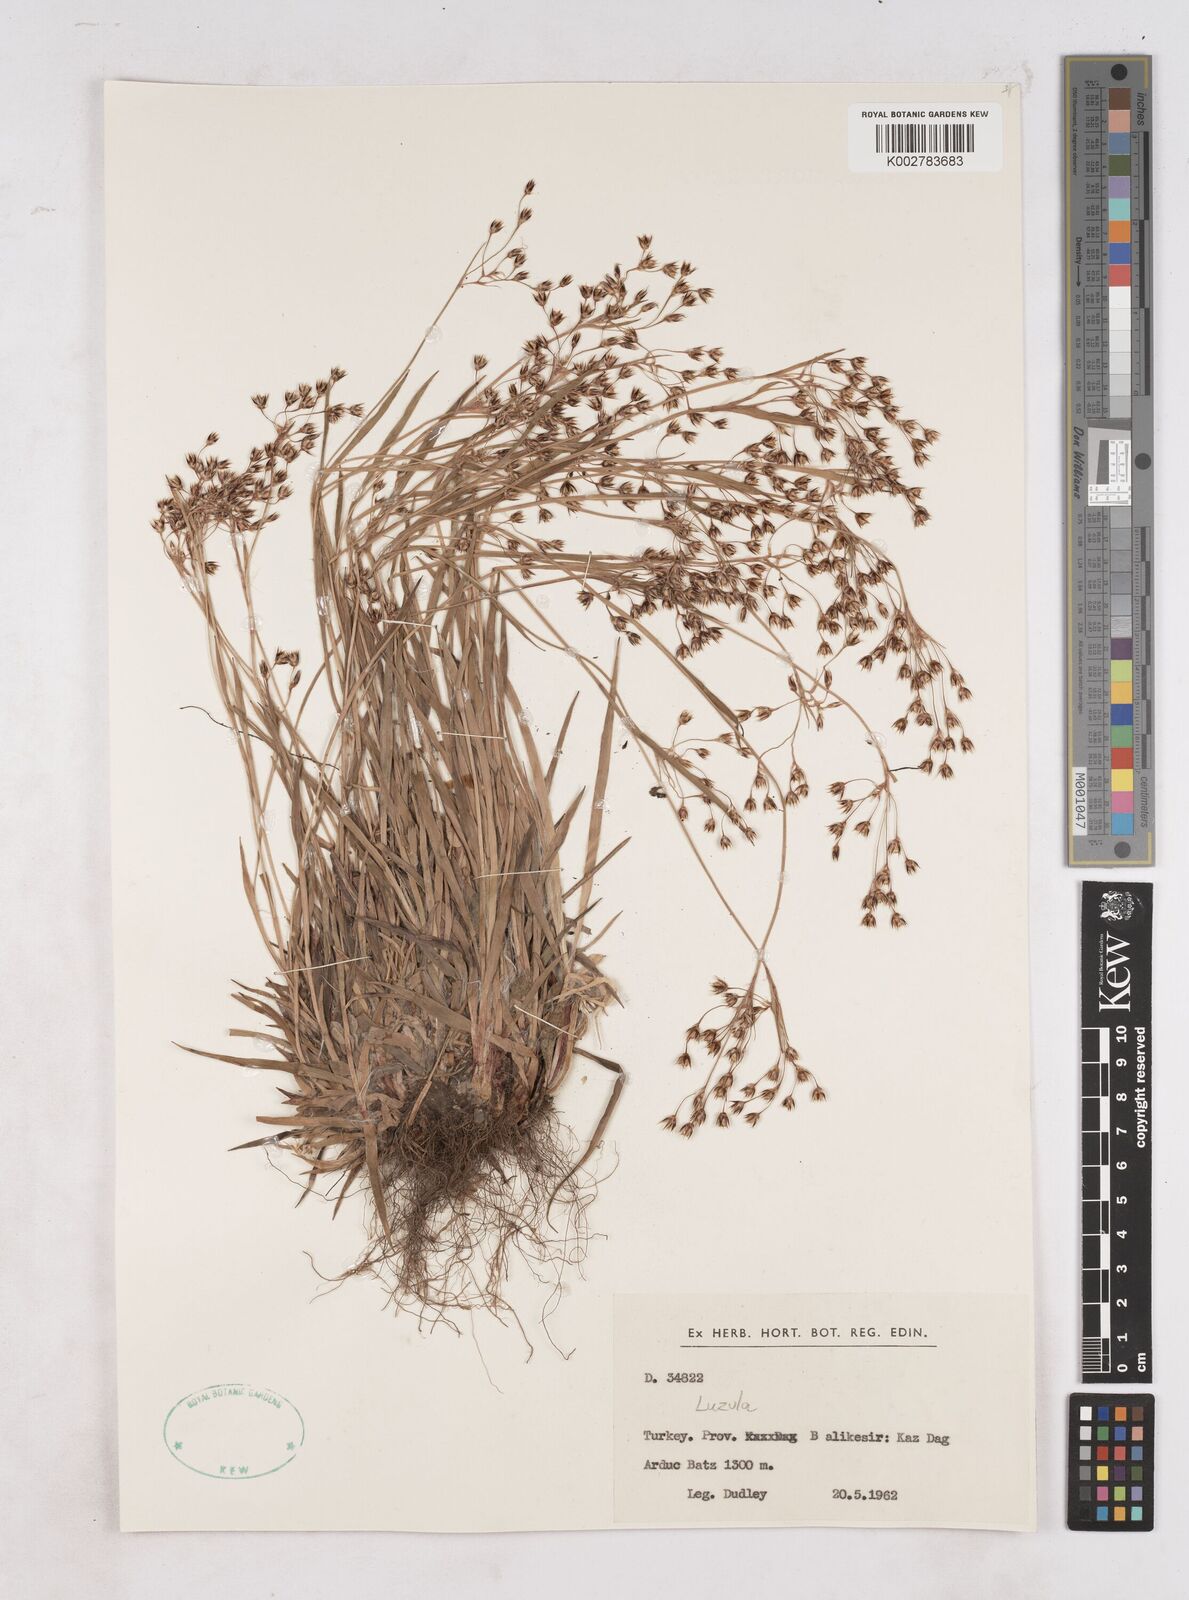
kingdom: Plantae
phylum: Tracheophyta
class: Liliopsida
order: Poales
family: Juncaceae
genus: Luzula
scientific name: Luzula
